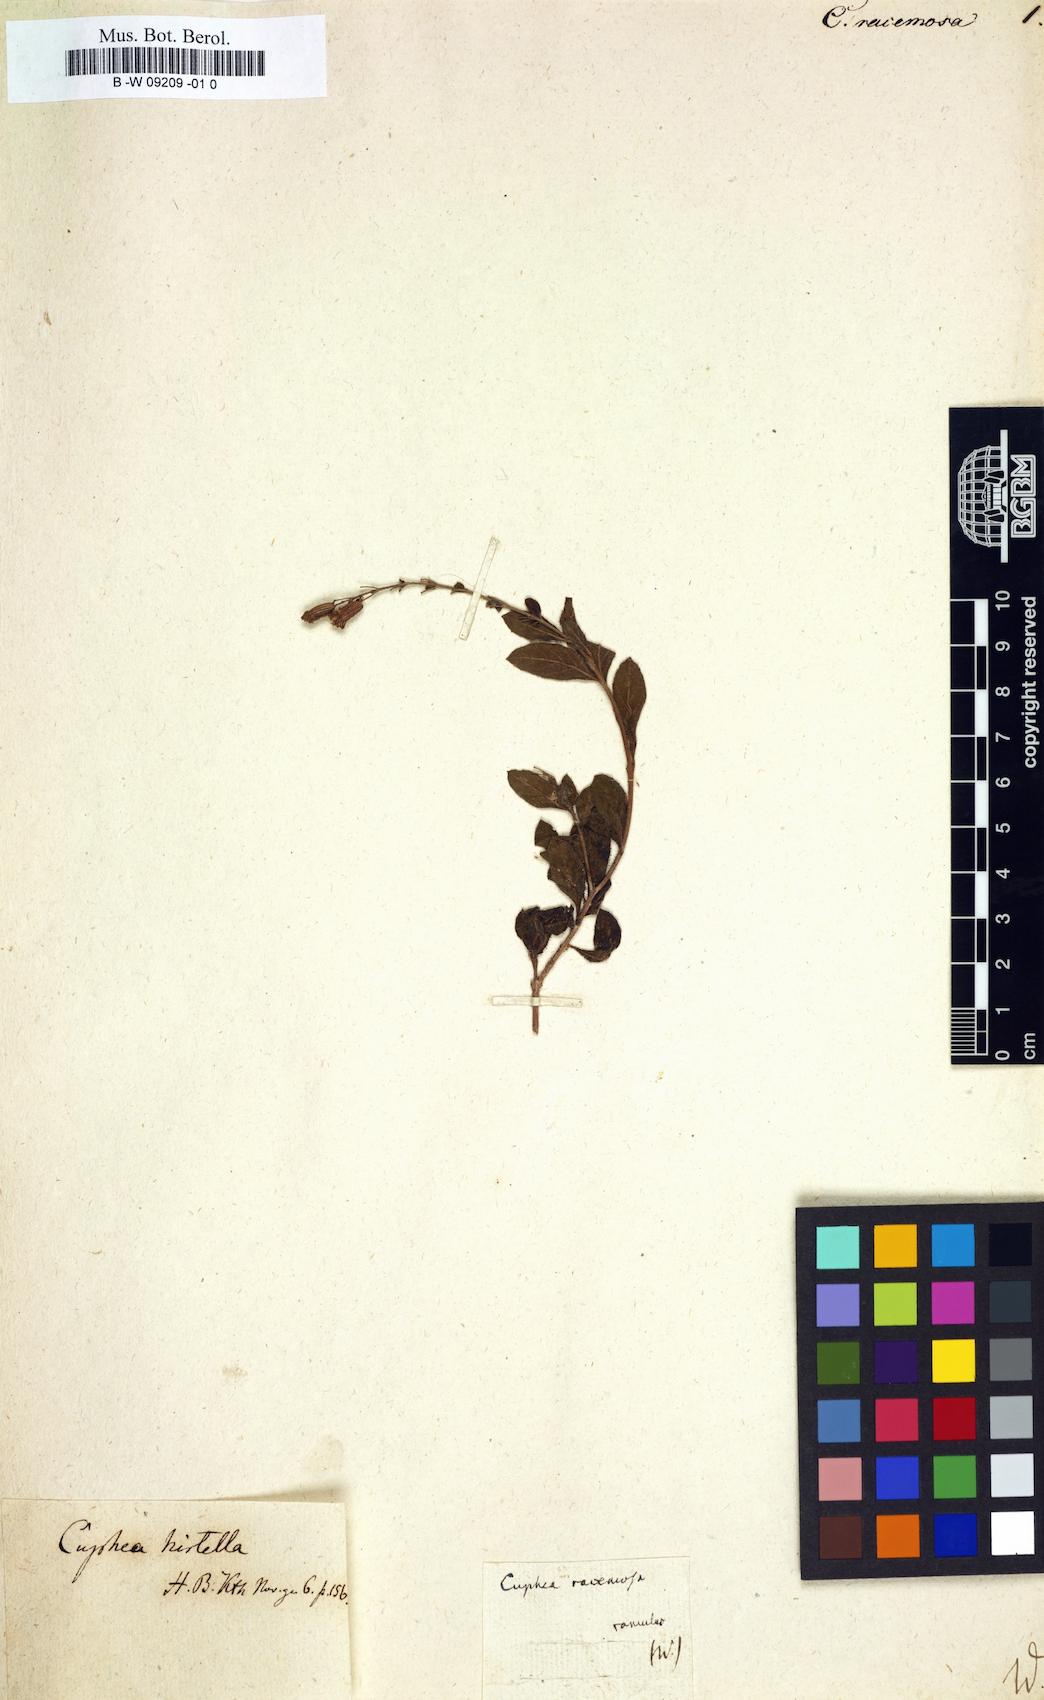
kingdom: Plantae
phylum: Tracheophyta
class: Magnoliopsida
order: Myrtales
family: Lythraceae
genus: Cuphea
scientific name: Cuphea racemosa
